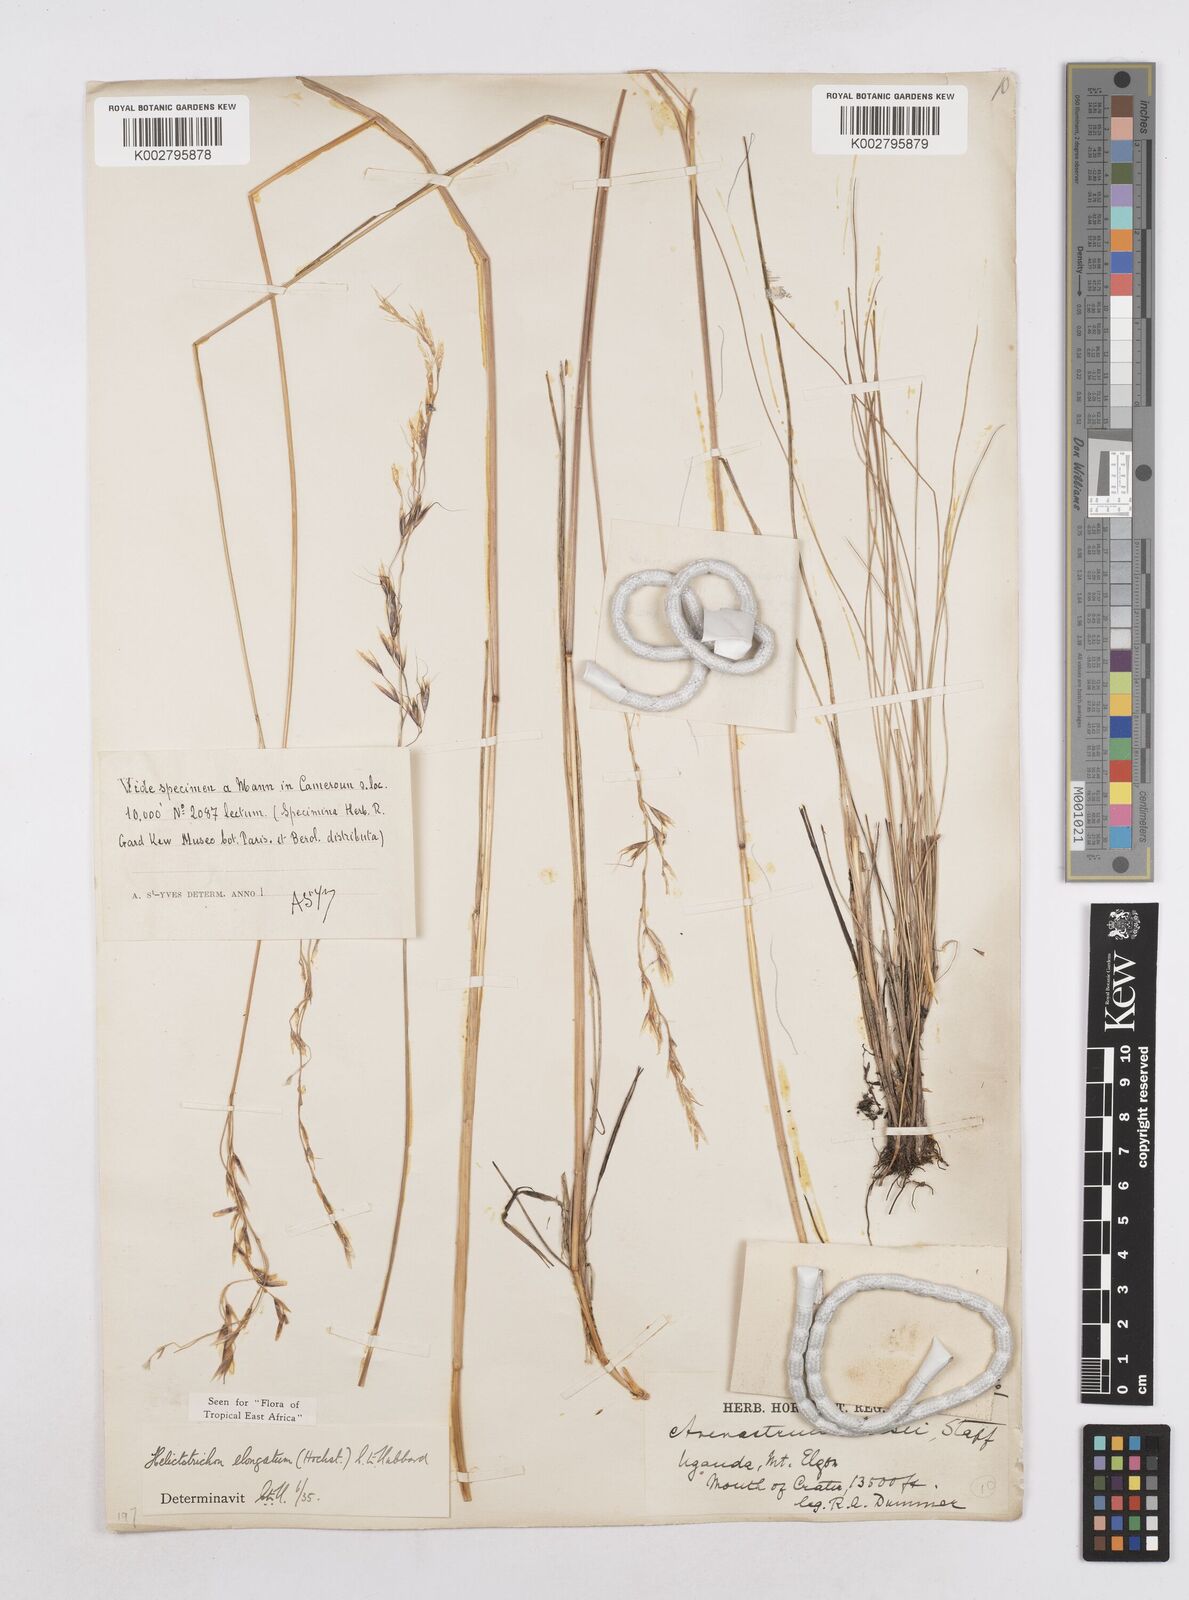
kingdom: Plantae
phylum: Tracheophyta
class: Liliopsida
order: Poales
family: Poaceae
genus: Trisetopsis
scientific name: Trisetopsis elongata
